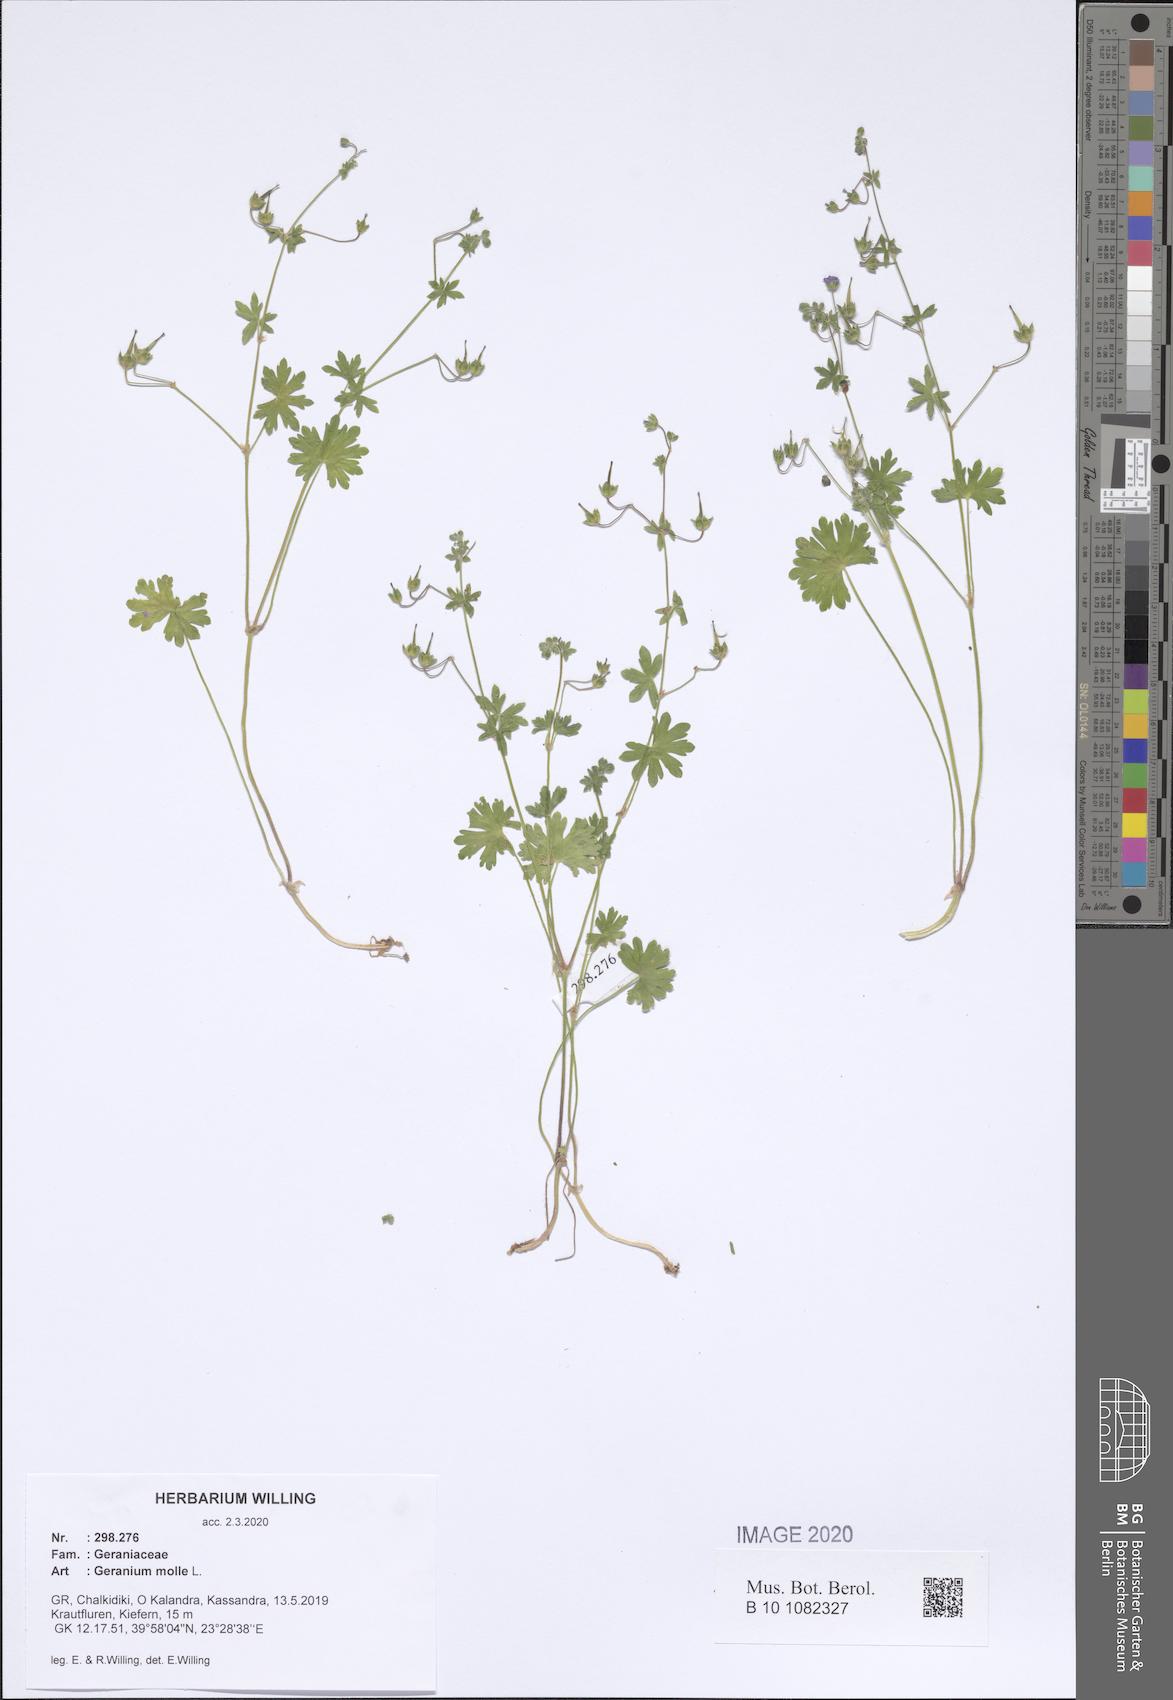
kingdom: Plantae
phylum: Tracheophyta
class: Magnoliopsida
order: Geraniales
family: Geraniaceae
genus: Geranium
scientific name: Geranium molle
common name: Dove's-foot crane's-bill
